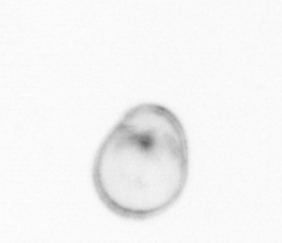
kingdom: Chromista
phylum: Myzozoa
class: Dinophyceae
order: Noctilucales
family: Noctilucaceae
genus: Noctiluca
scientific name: Noctiluca scintillans
